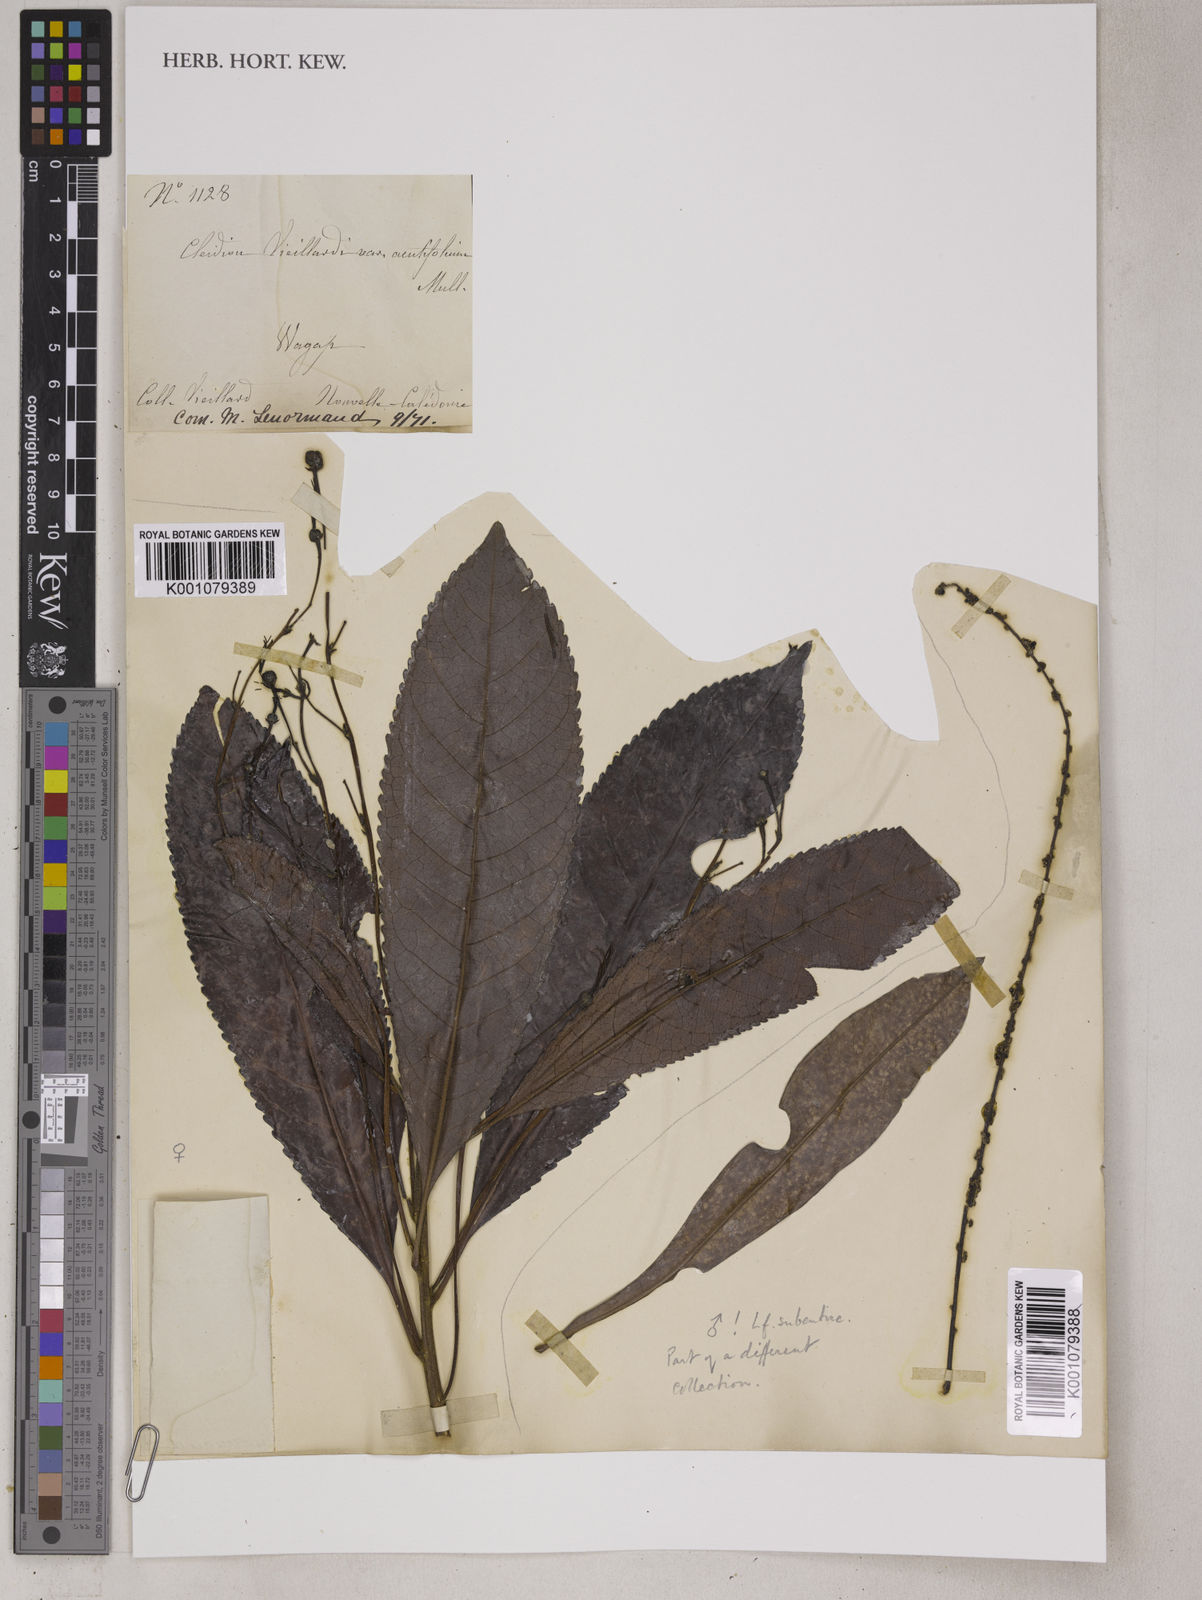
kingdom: Plantae
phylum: Tracheophyta
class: Magnoliopsida
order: Malpighiales
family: Euphorbiaceae
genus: Cleidion
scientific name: Cleidion vieillardii
